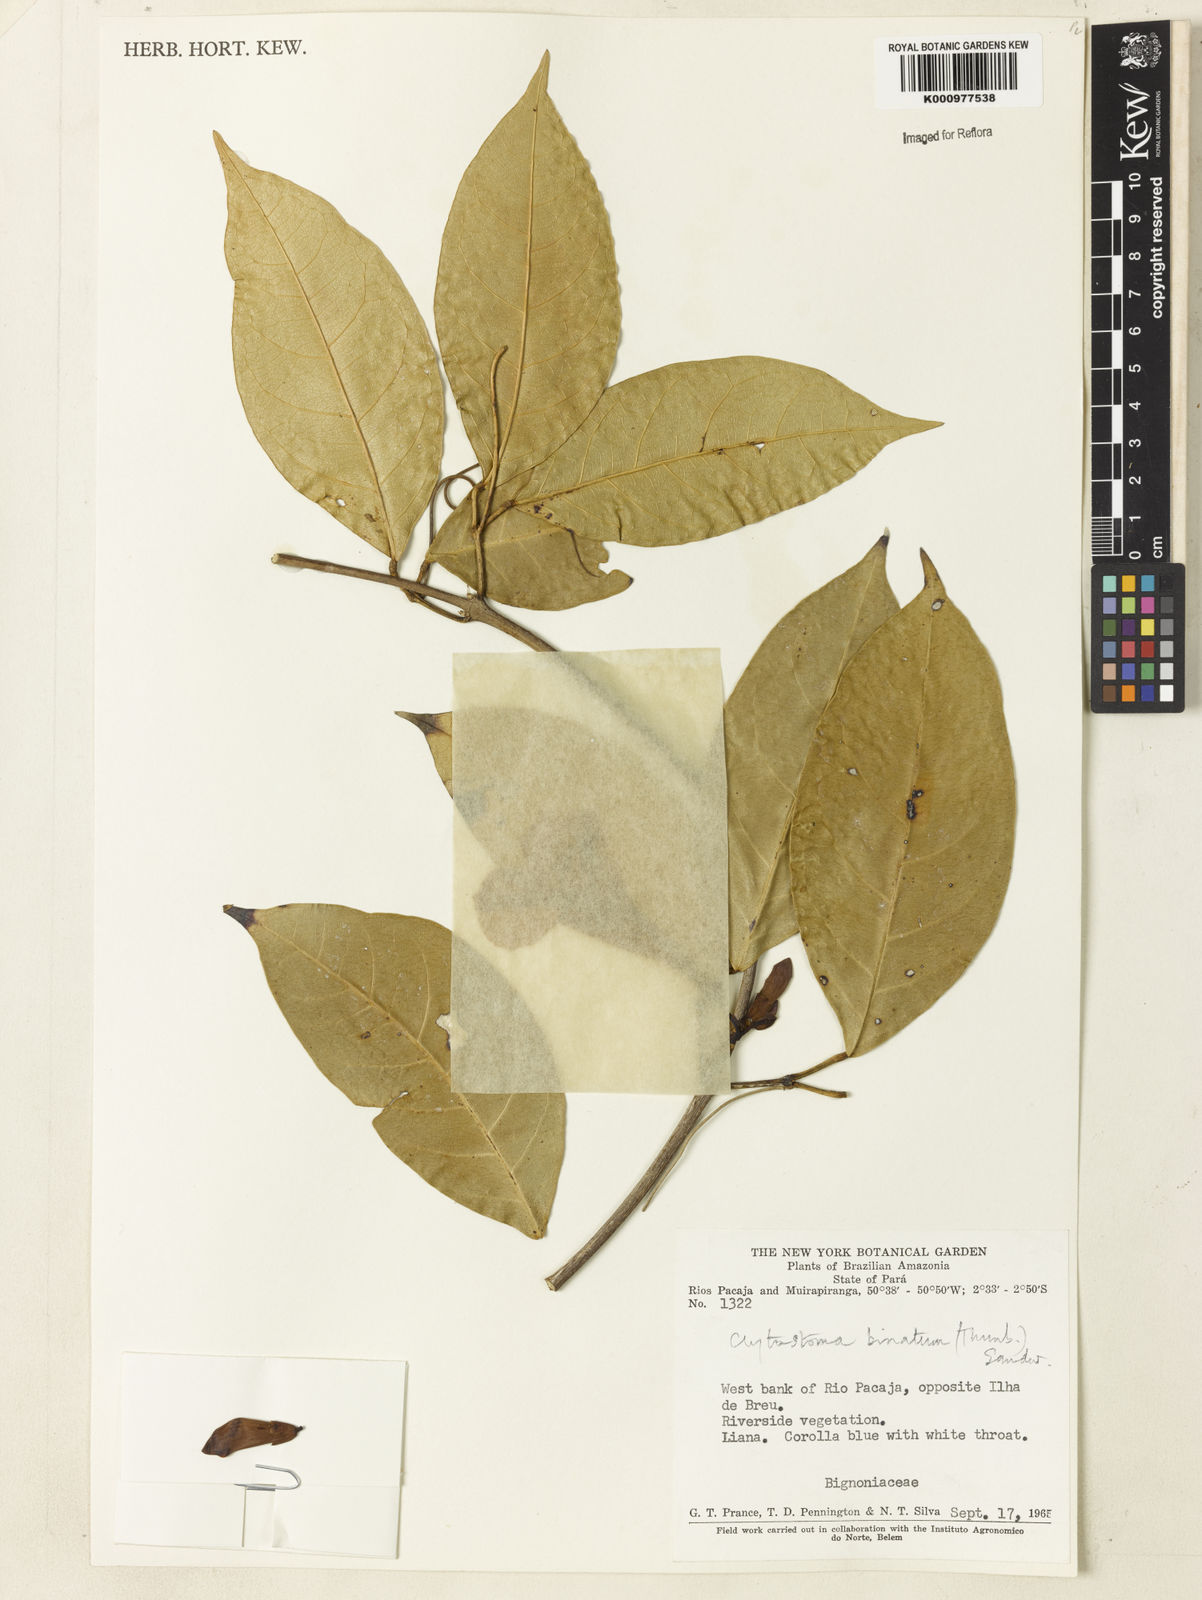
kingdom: Plantae
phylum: Tracheophyta
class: Magnoliopsida
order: Lamiales
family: Bignoniaceae
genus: Bignonia
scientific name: Bignonia binata
